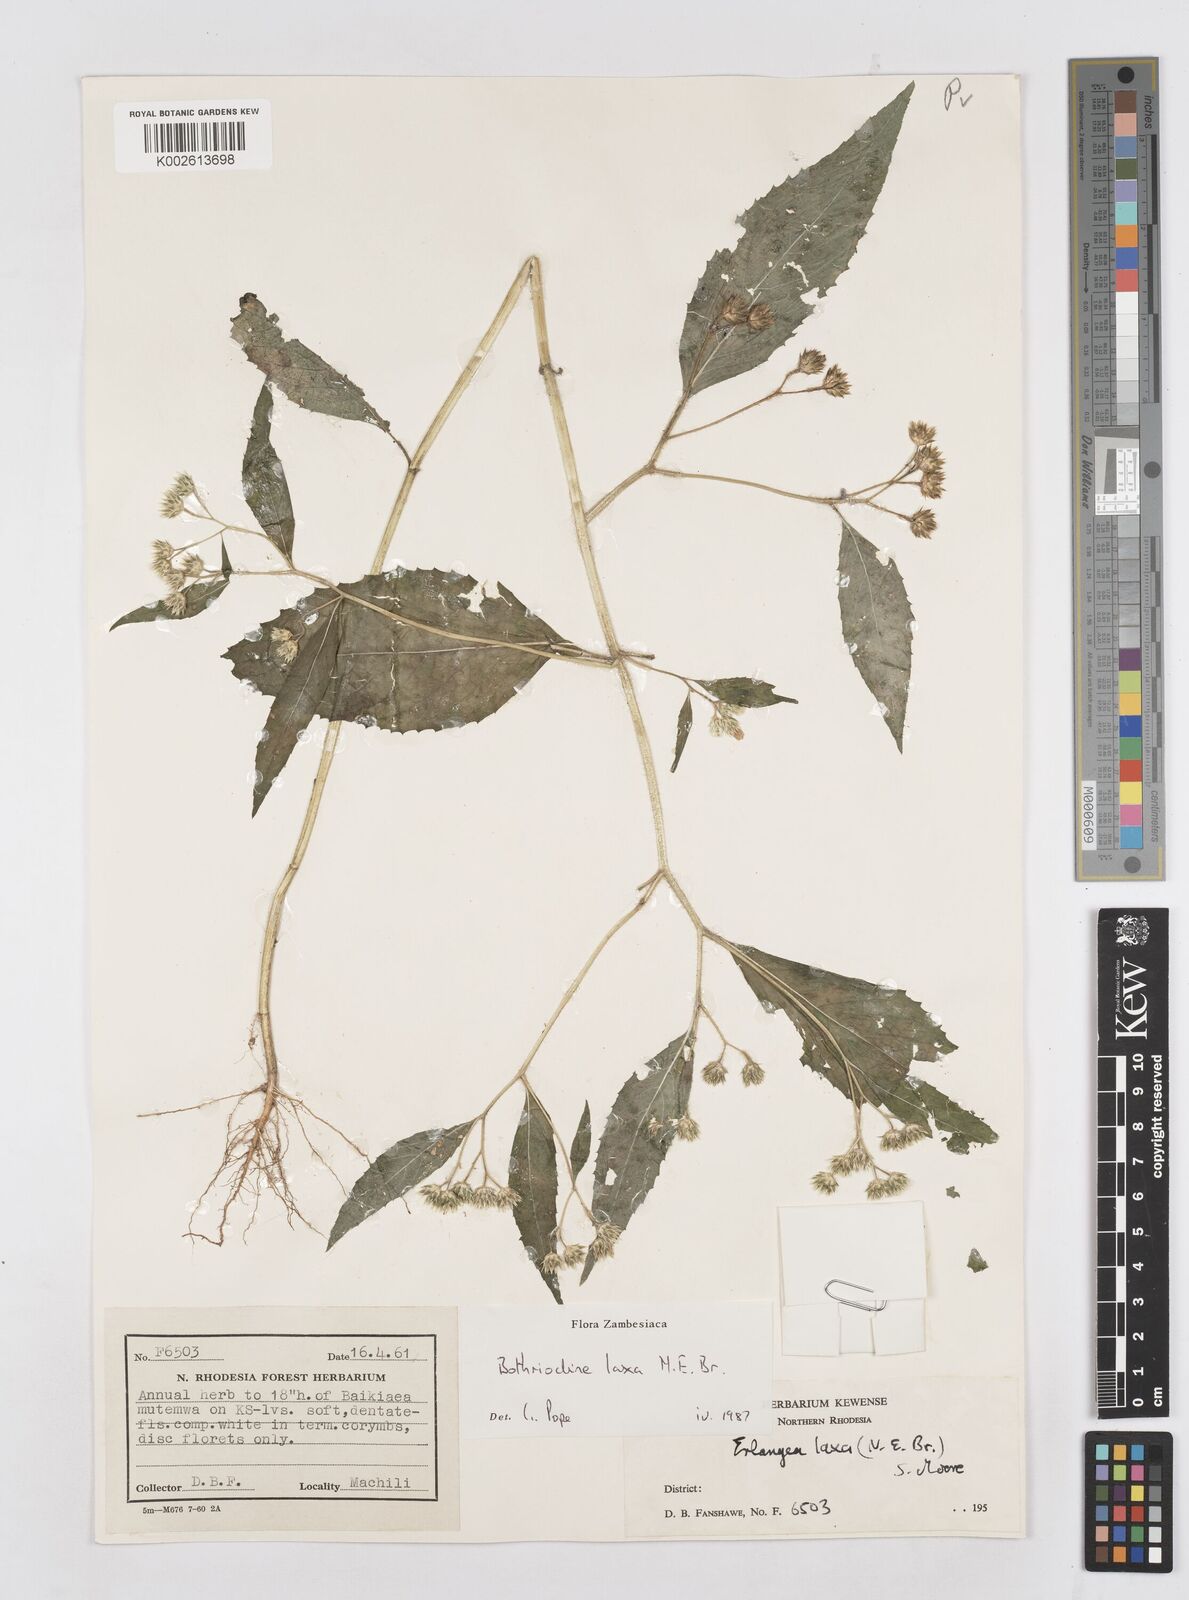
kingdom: Plantae
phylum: Tracheophyta
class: Magnoliopsida
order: Asterales
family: Asteraceae
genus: Bothriocline
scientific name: Bothriocline laxa
